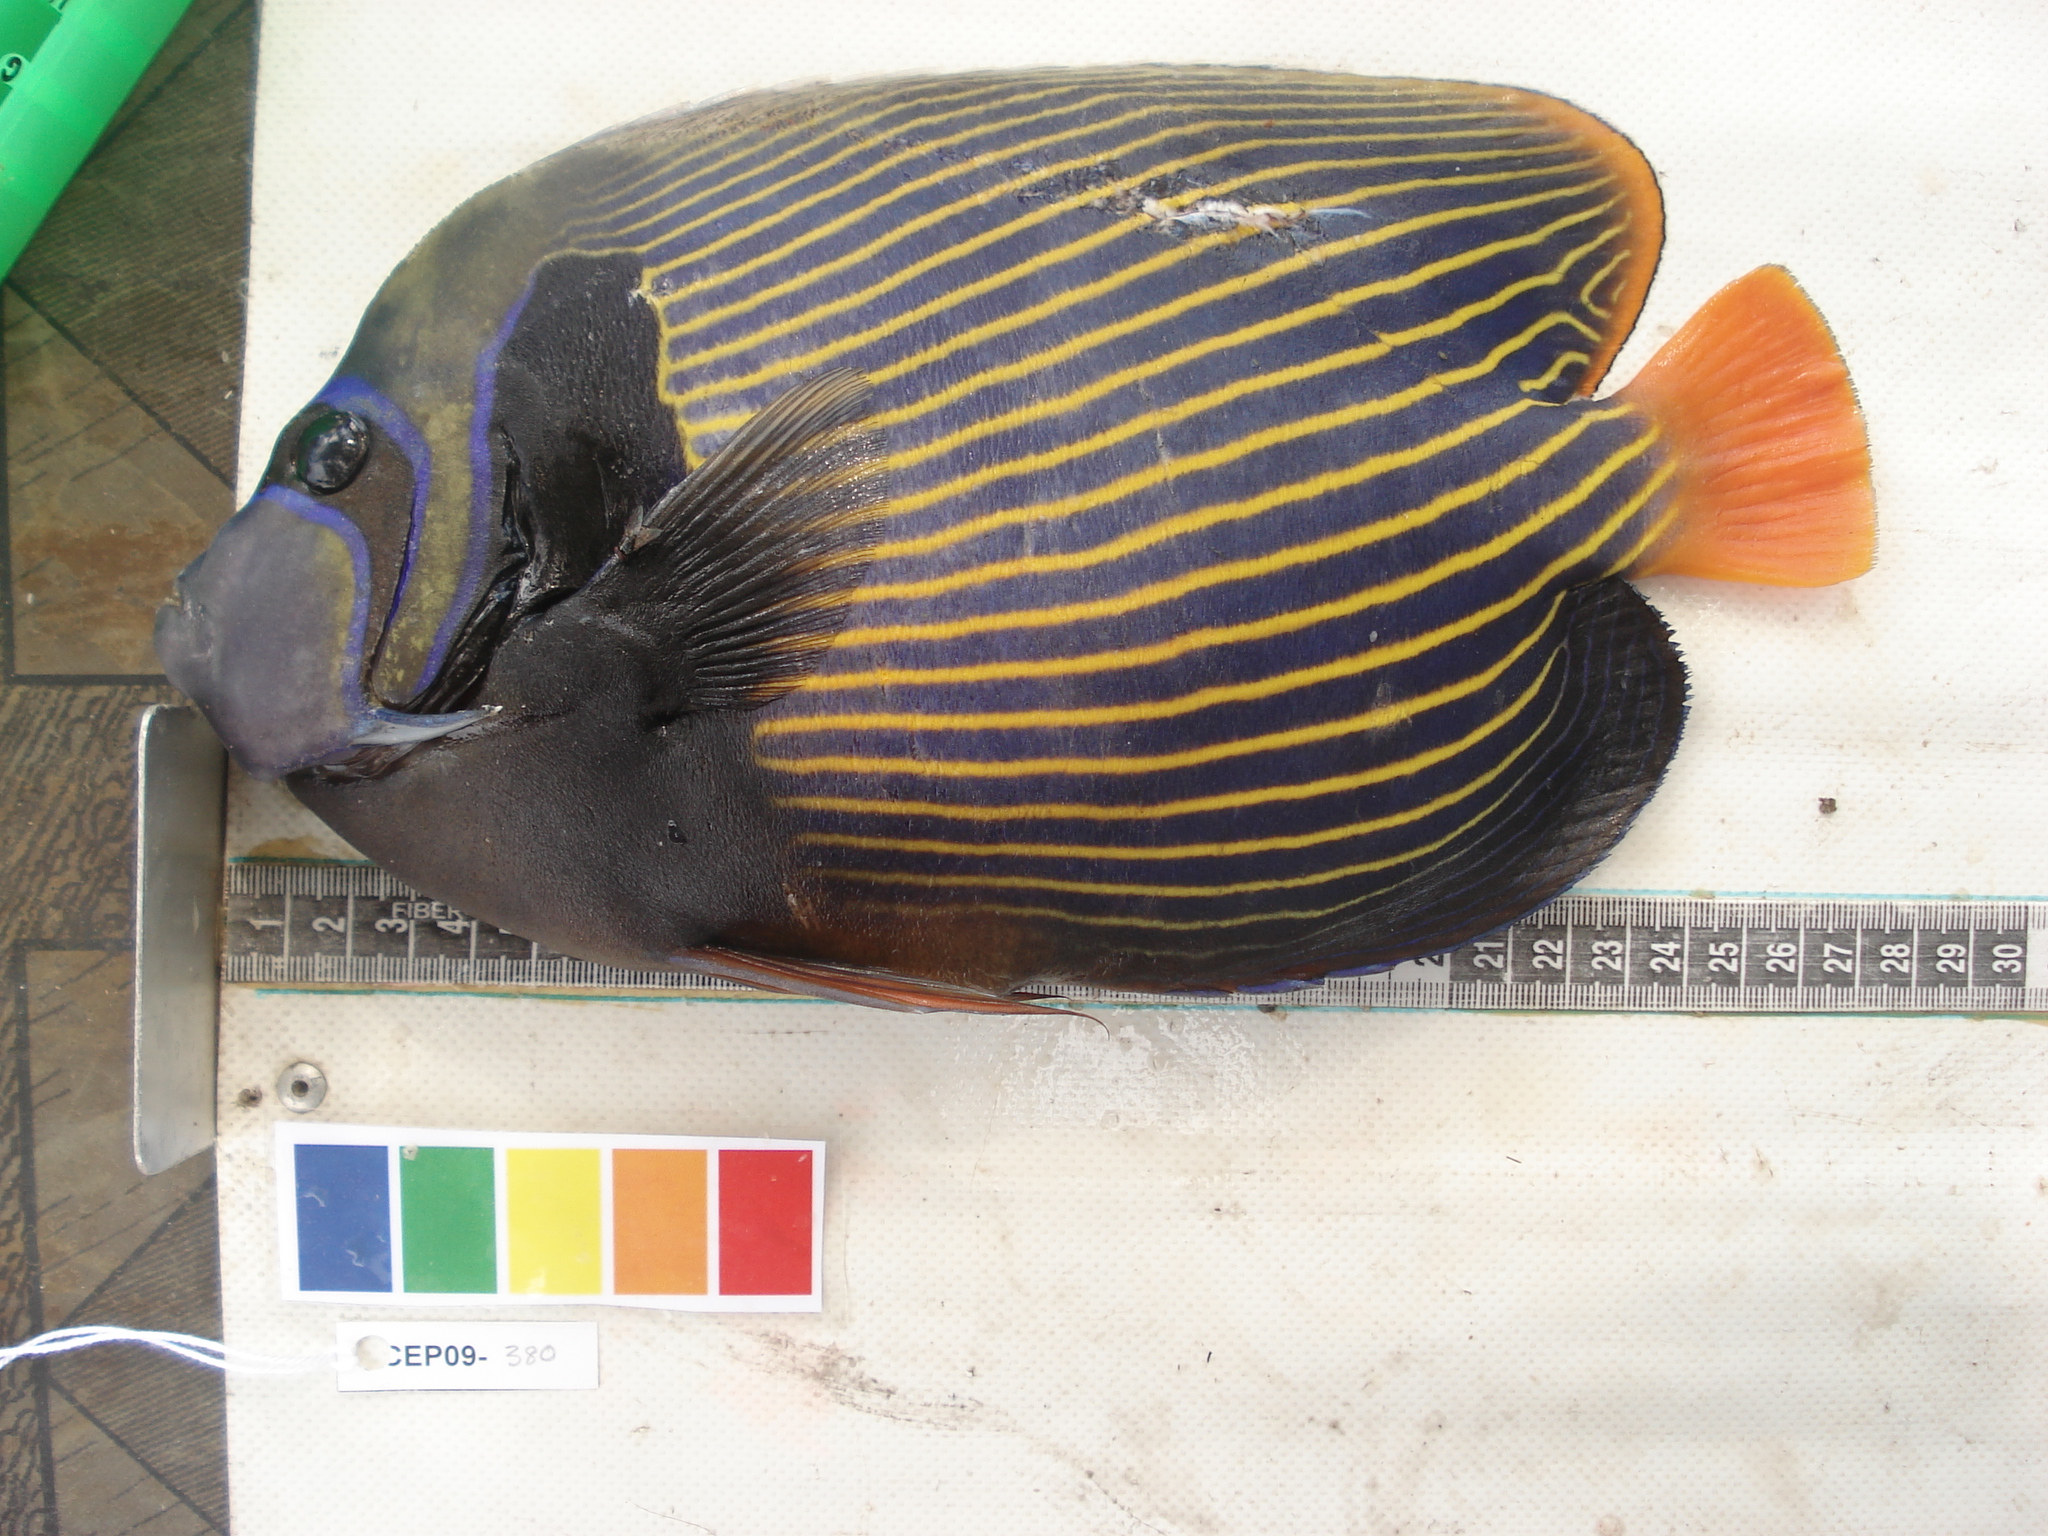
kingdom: Animalia
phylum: Chordata
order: Perciformes
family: Pomacanthidae
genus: Pomacanthus
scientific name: Pomacanthus imperator
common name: Emperor angelfish
